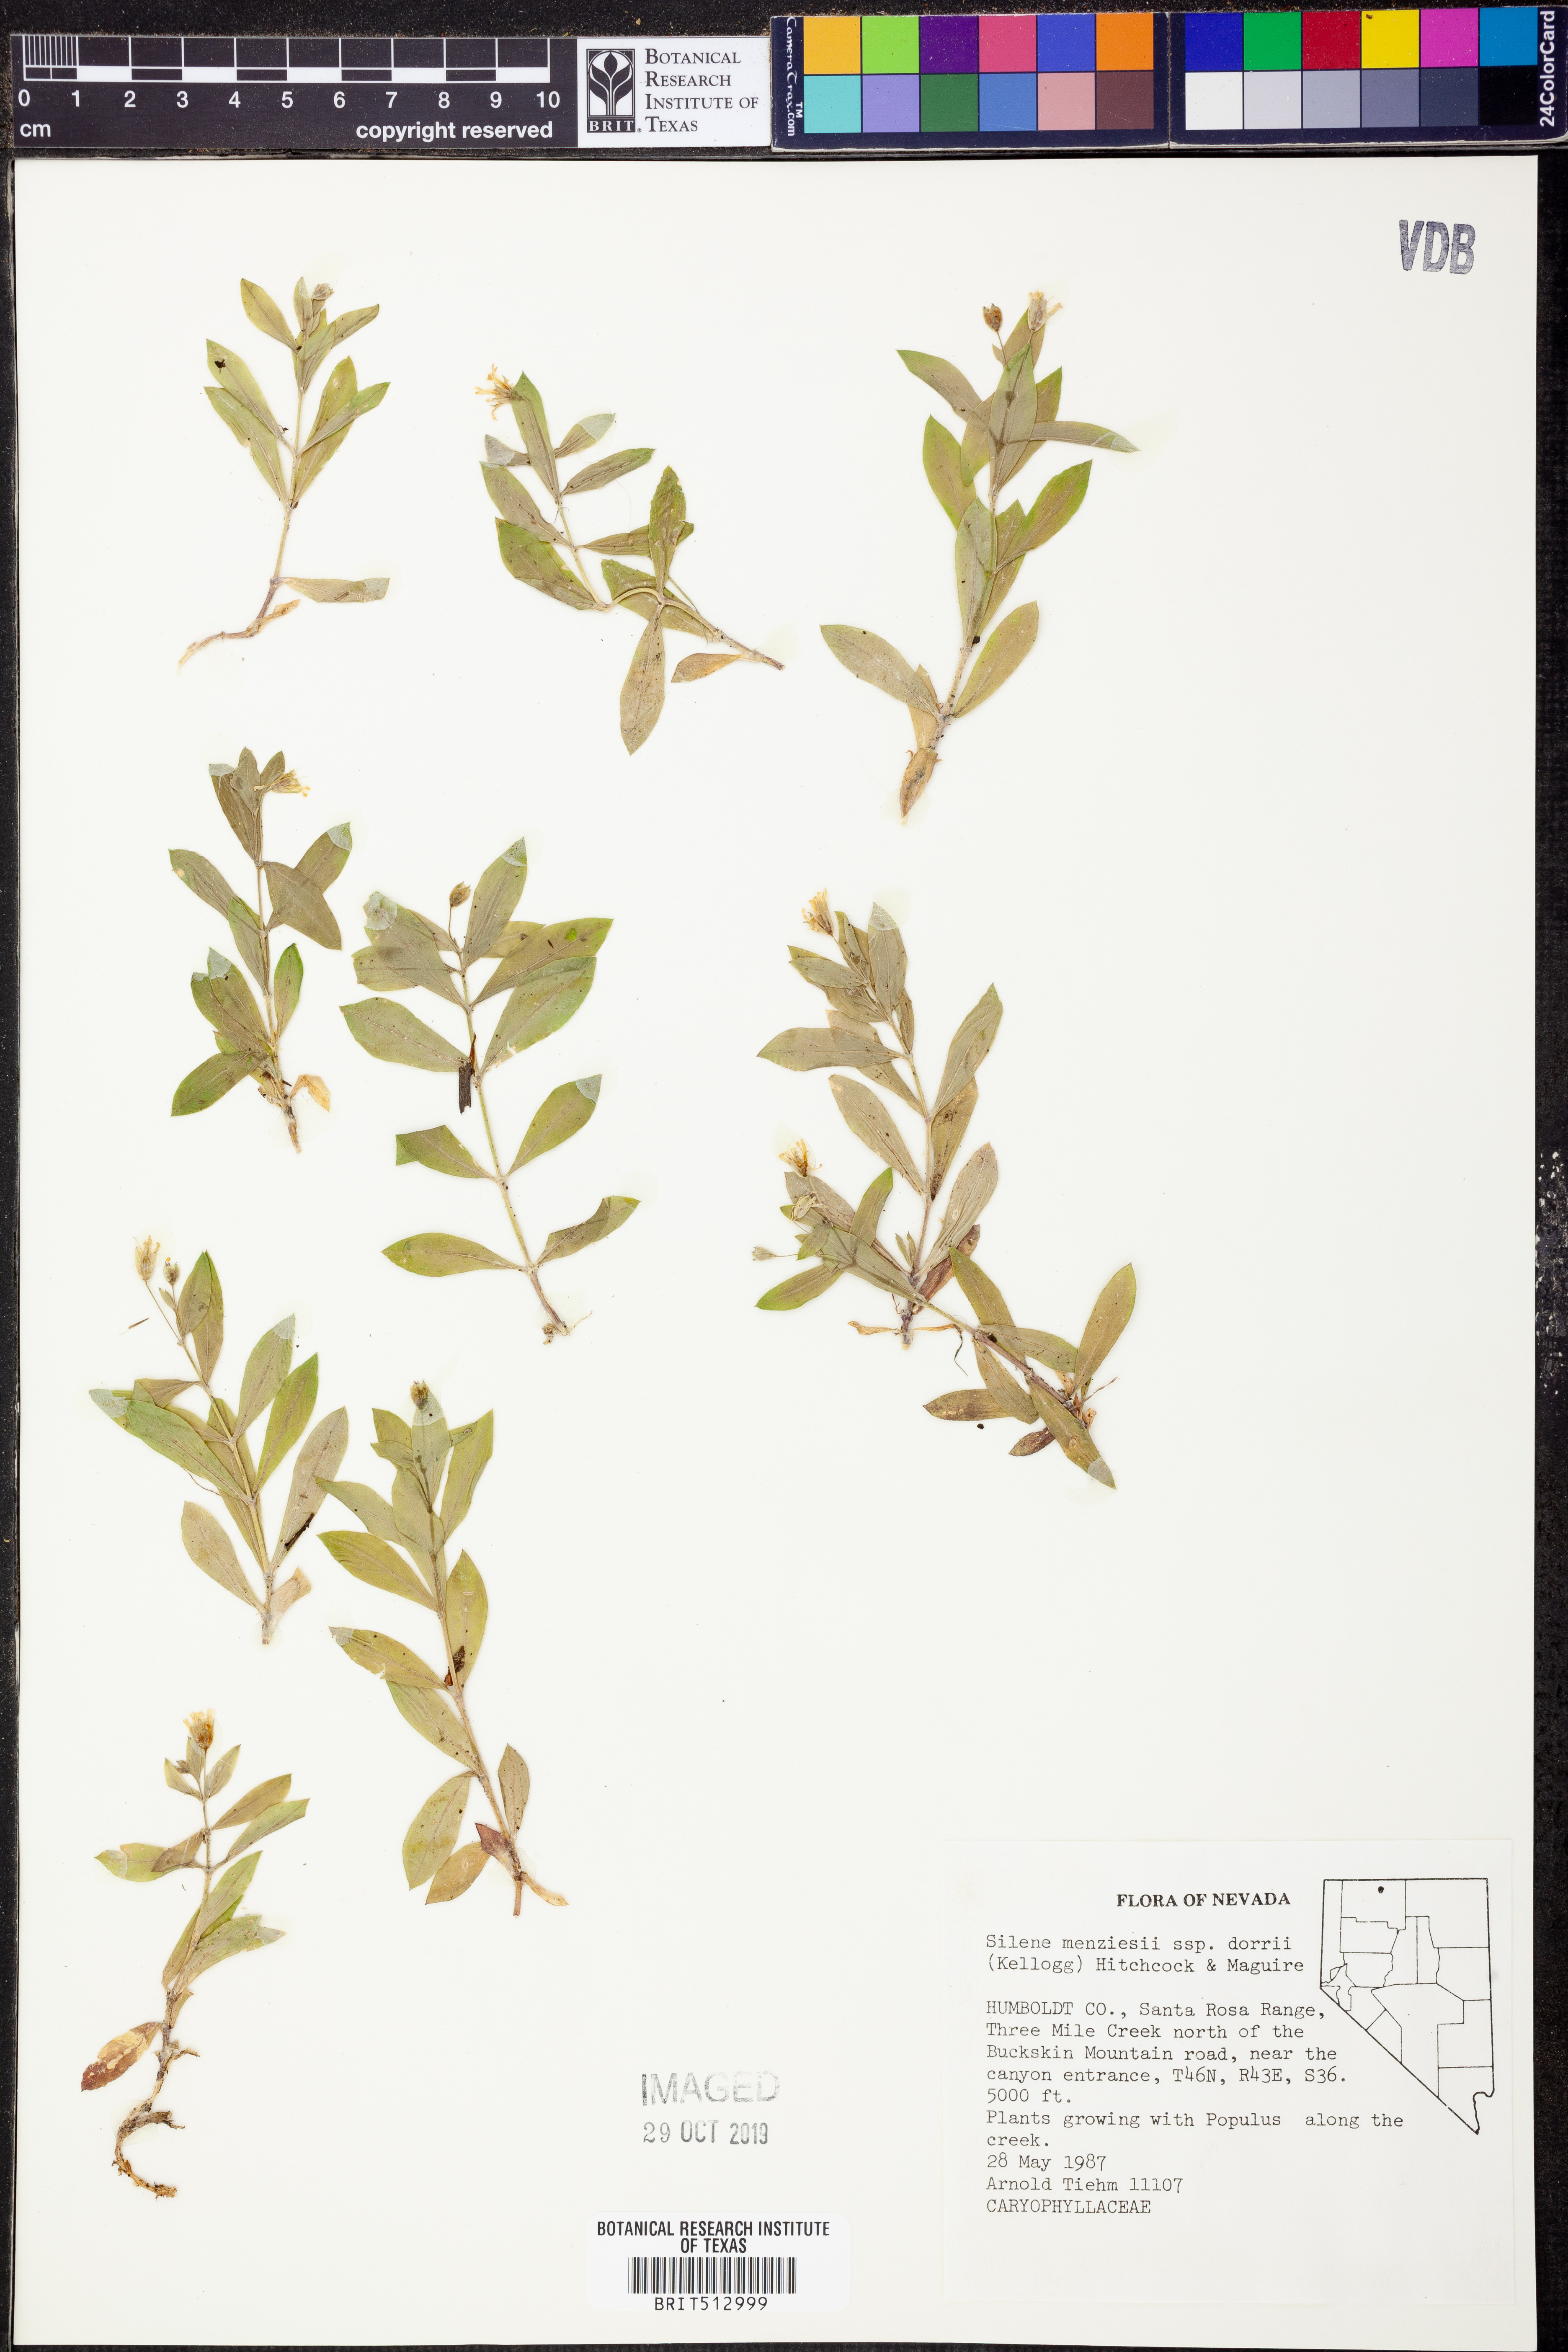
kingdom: Plantae
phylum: Tracheophyta
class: Magnoliopsida
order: Caryophyllales
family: Caryophyllaceae
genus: Silene
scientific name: Silene menziesii
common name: Menzies's catchfly
